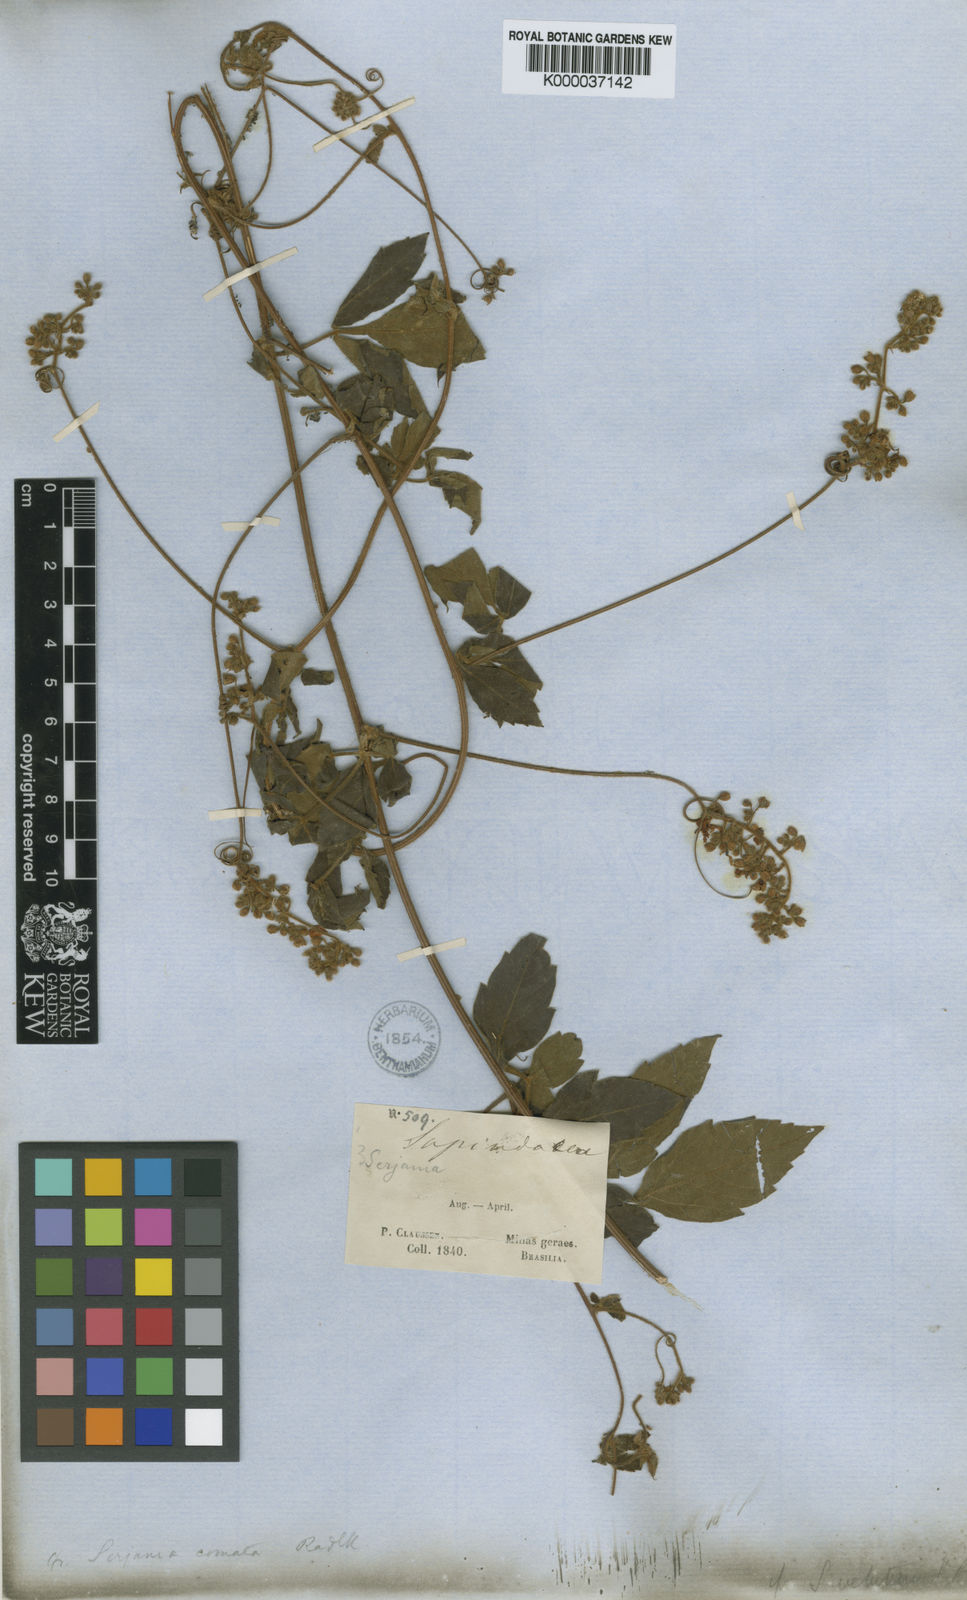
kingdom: Plantae
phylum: Tracheophyta
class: Magnoliopsida
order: Sapindales
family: Sapindaceae
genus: Serjania
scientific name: Serjania comata
